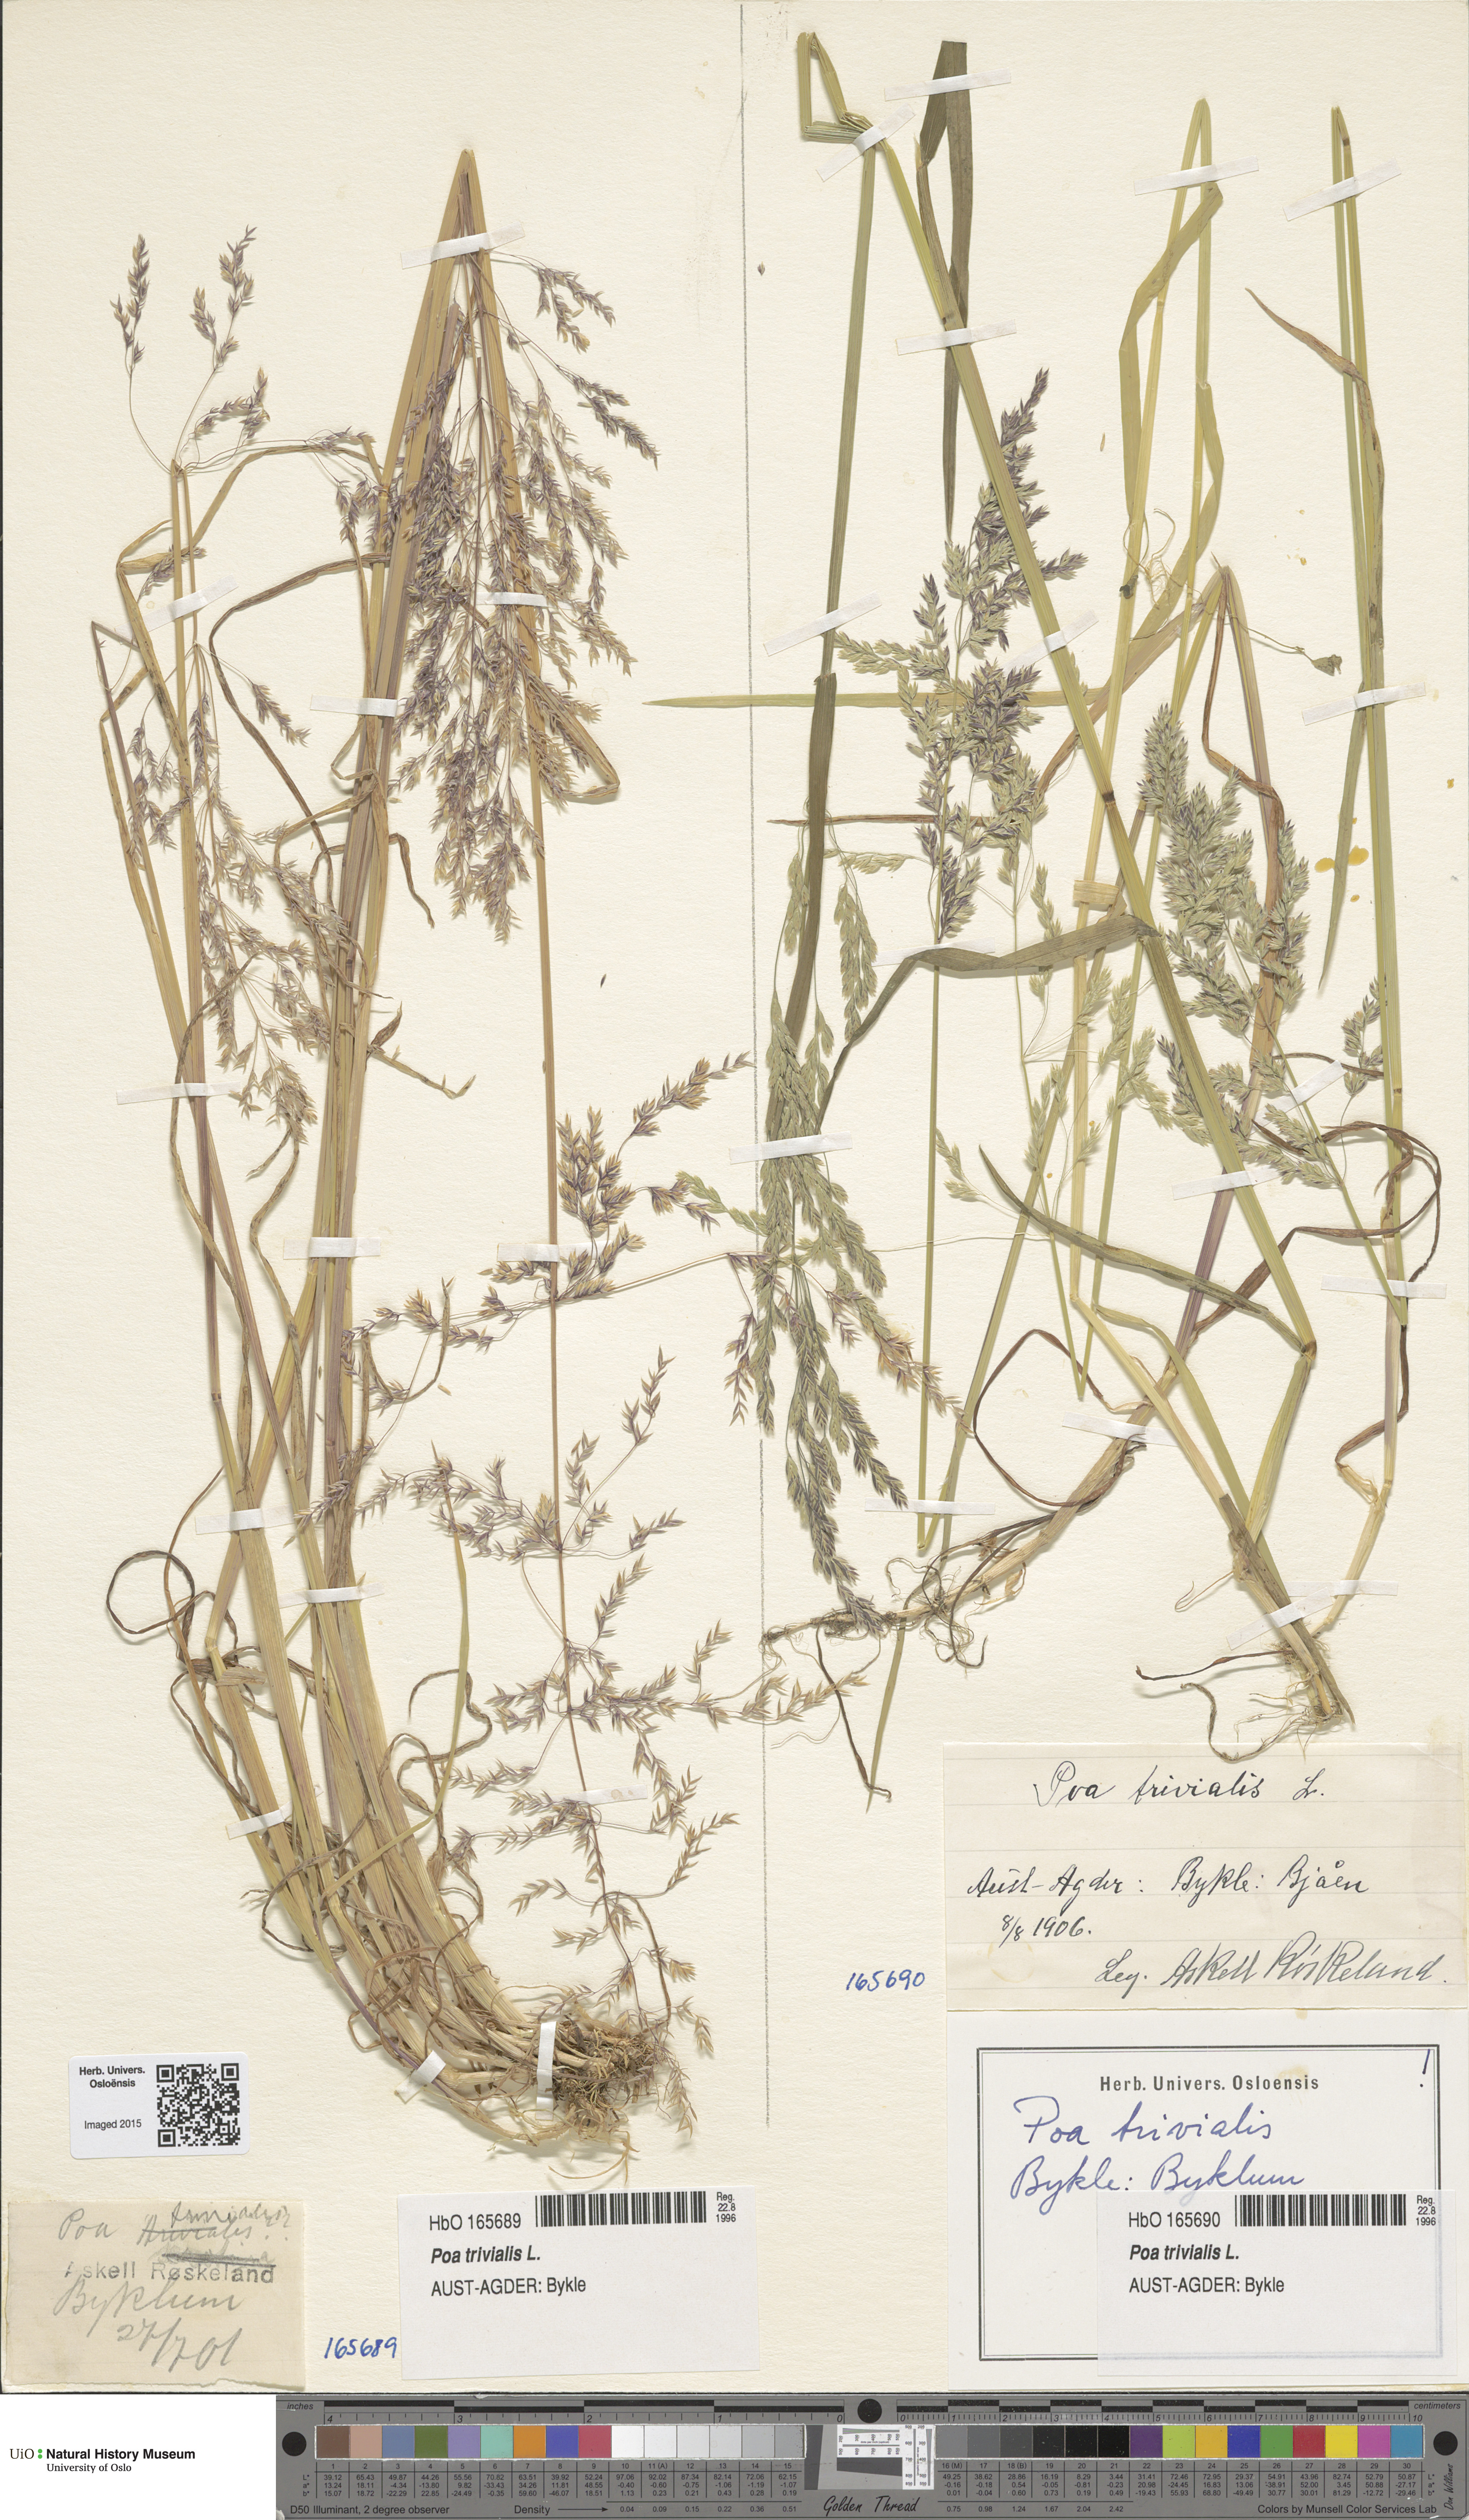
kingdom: Plantae
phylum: Tracheophyta
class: Liliopsida
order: Poales
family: Poaceae
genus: Poa
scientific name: Poa trivialis
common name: Rough bluegrass
